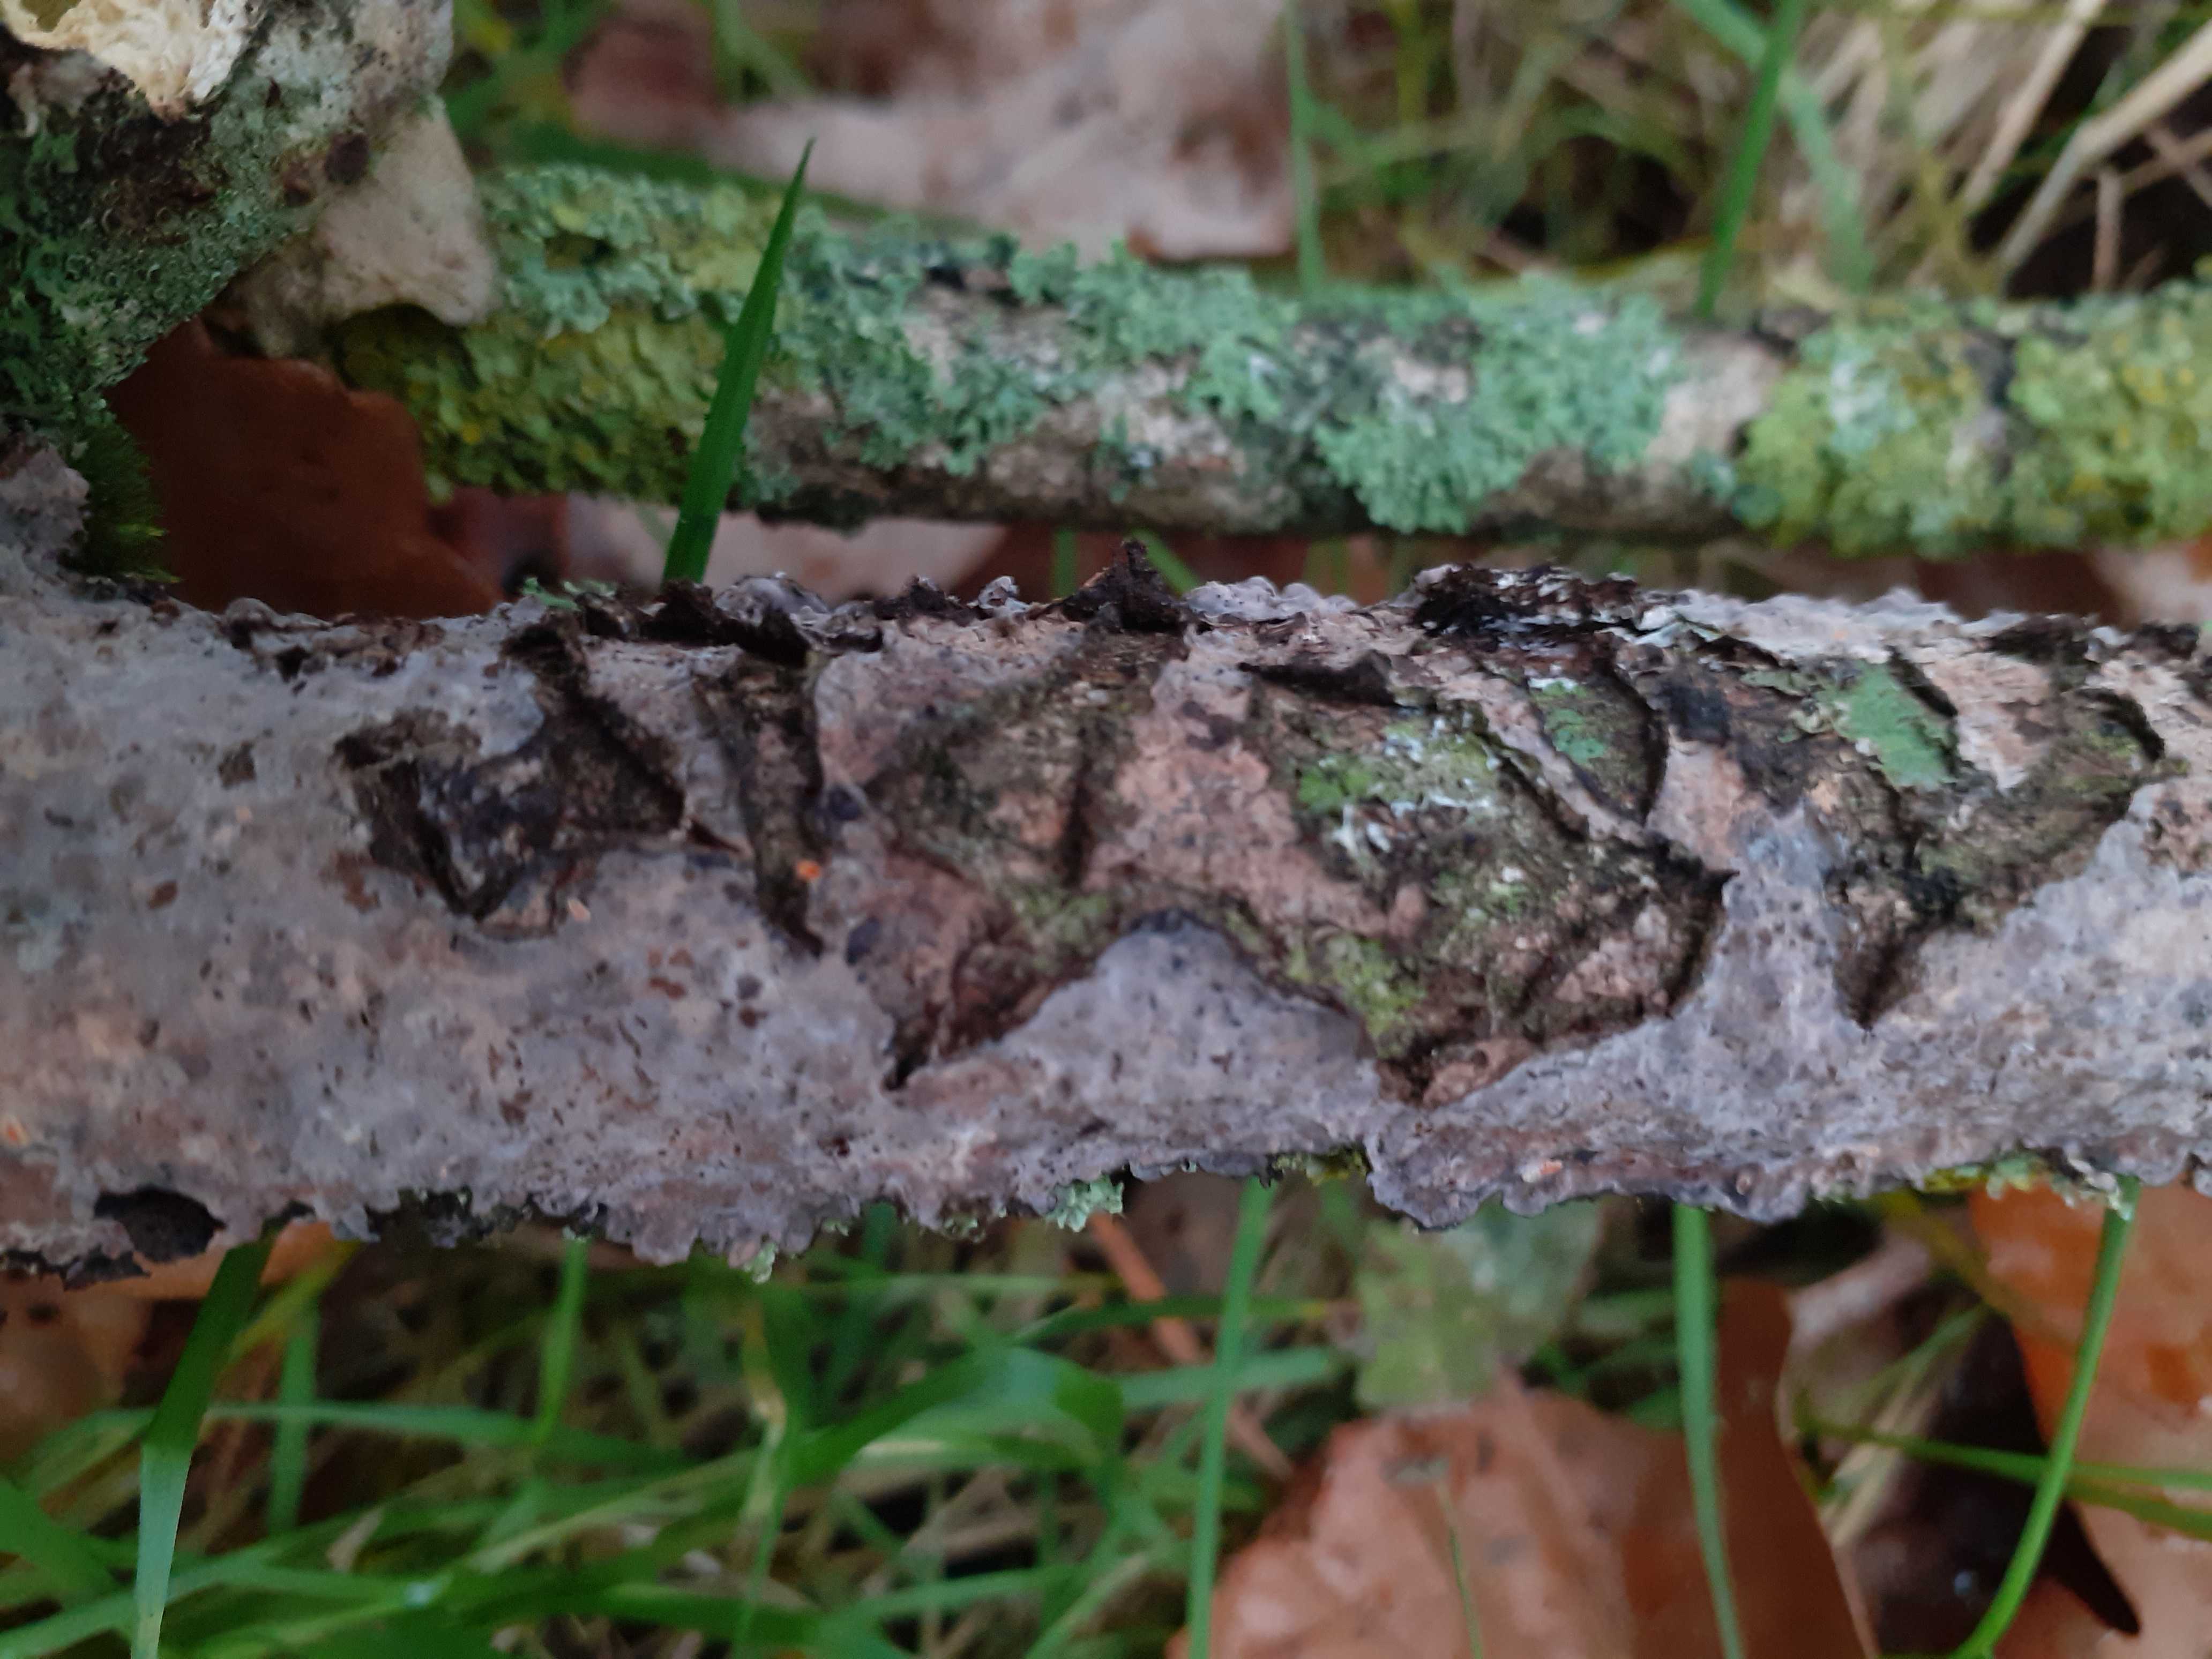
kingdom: Fungi
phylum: Basidiomycota
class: Agaricomycetes
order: Russulales
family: Peniophoraceae
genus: Peniophora
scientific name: Peniophora quercina
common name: ege-voksskind
